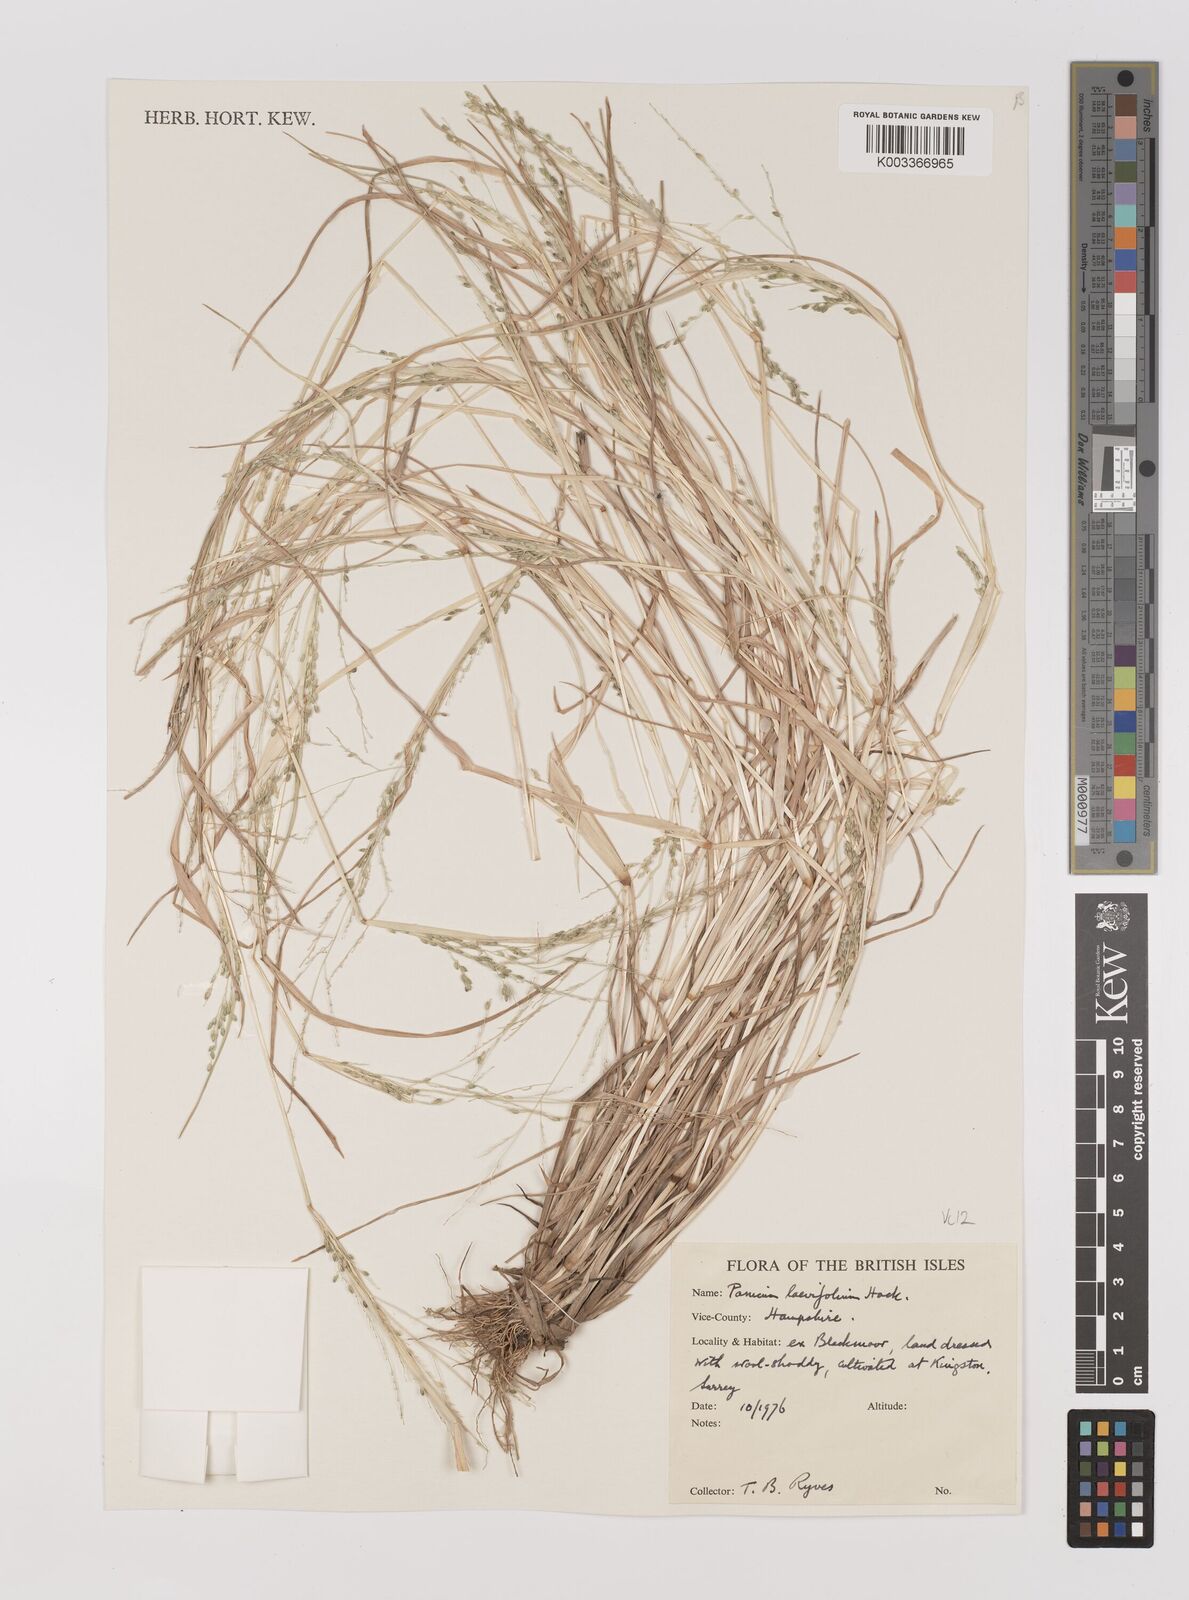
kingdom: Plantae
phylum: Tracheophyta
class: Liliopsida
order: Poales
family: Poaceae
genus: Panicum
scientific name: Panicum schinzii
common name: Sweet grass
